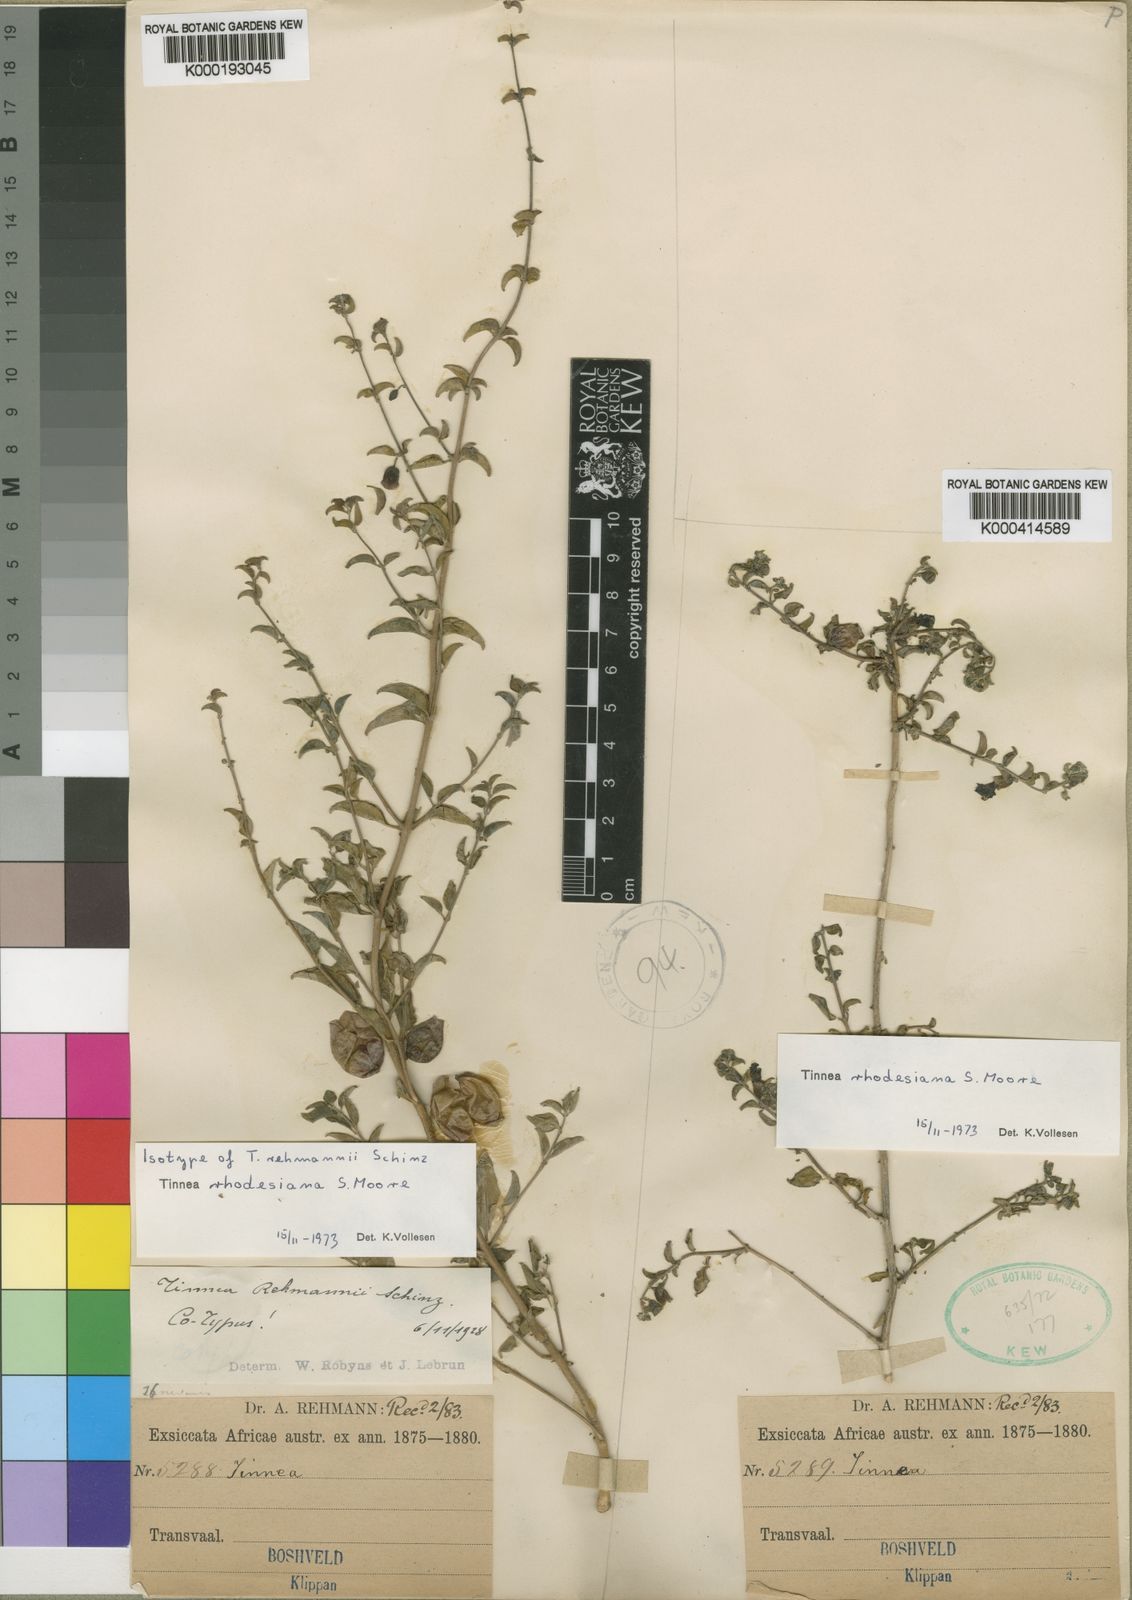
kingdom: Plantae
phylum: Tracheophyta
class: Magnoliopsida
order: Lamiales
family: Lamiaceae
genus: Tinnea
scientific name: Tinnea rhodesiana
